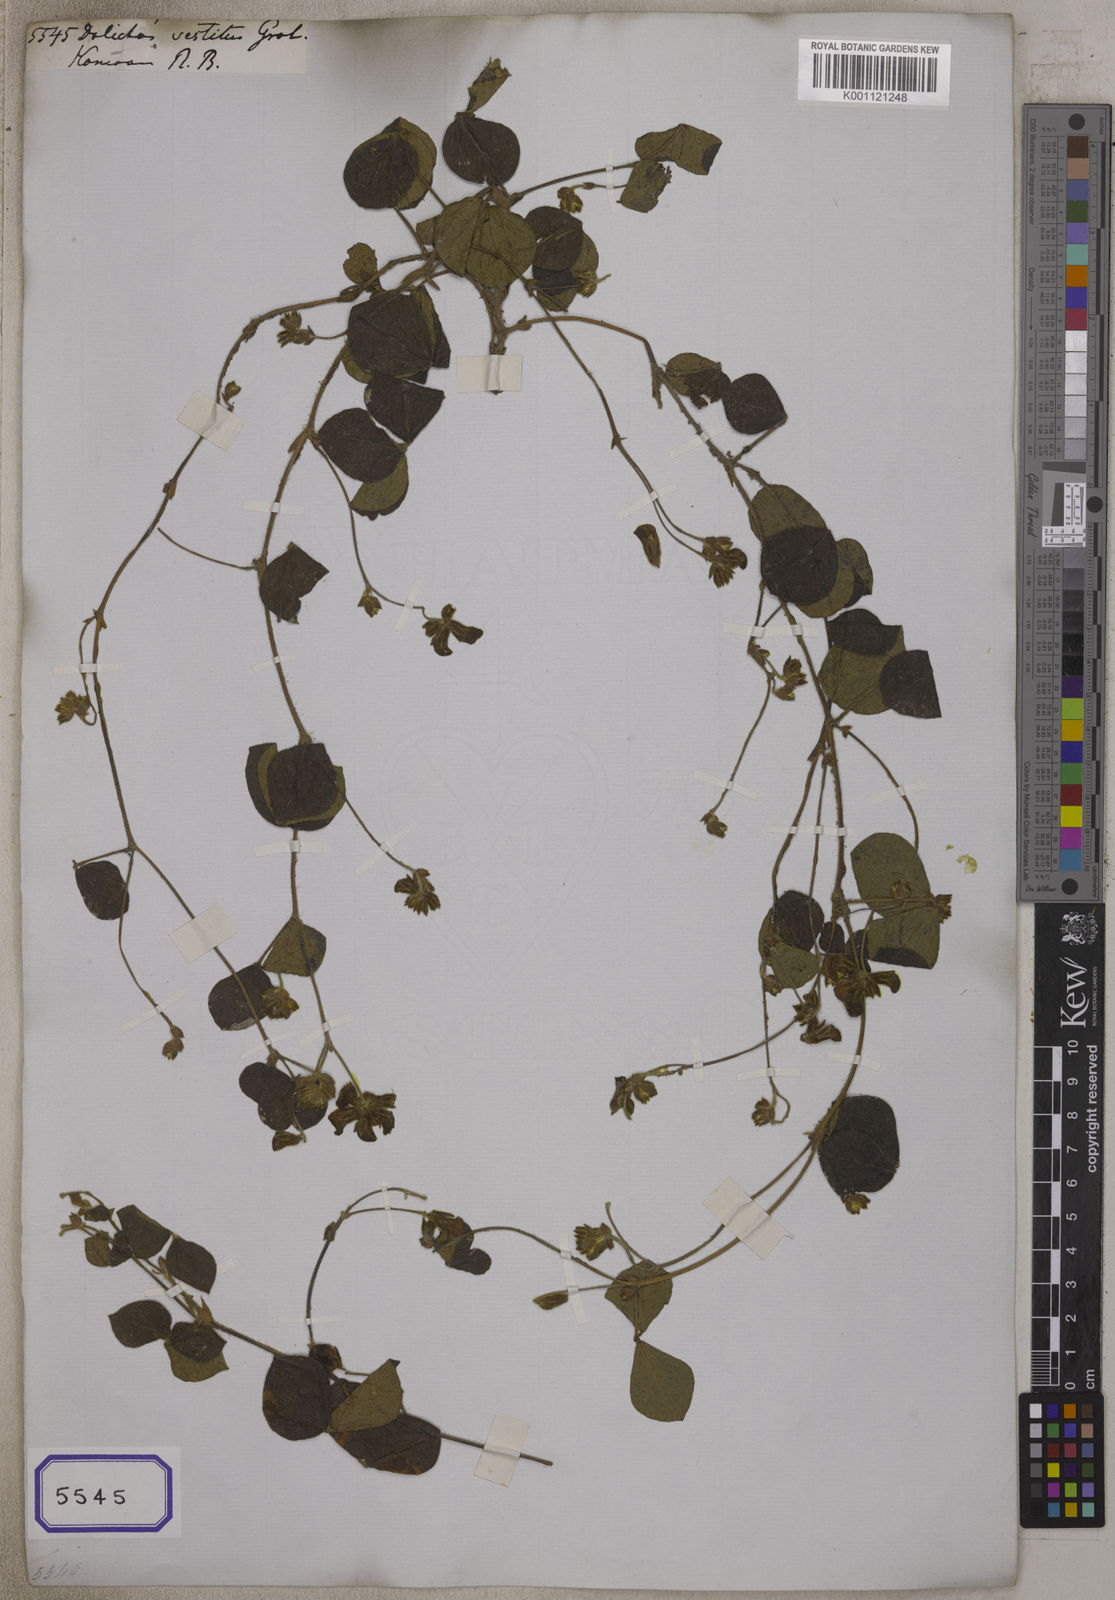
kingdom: Plantae
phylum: Tracheophyta
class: Magnoliopsida
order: Fabales
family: Fabaceae
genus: Flemingia
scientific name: Flemingia vestita
